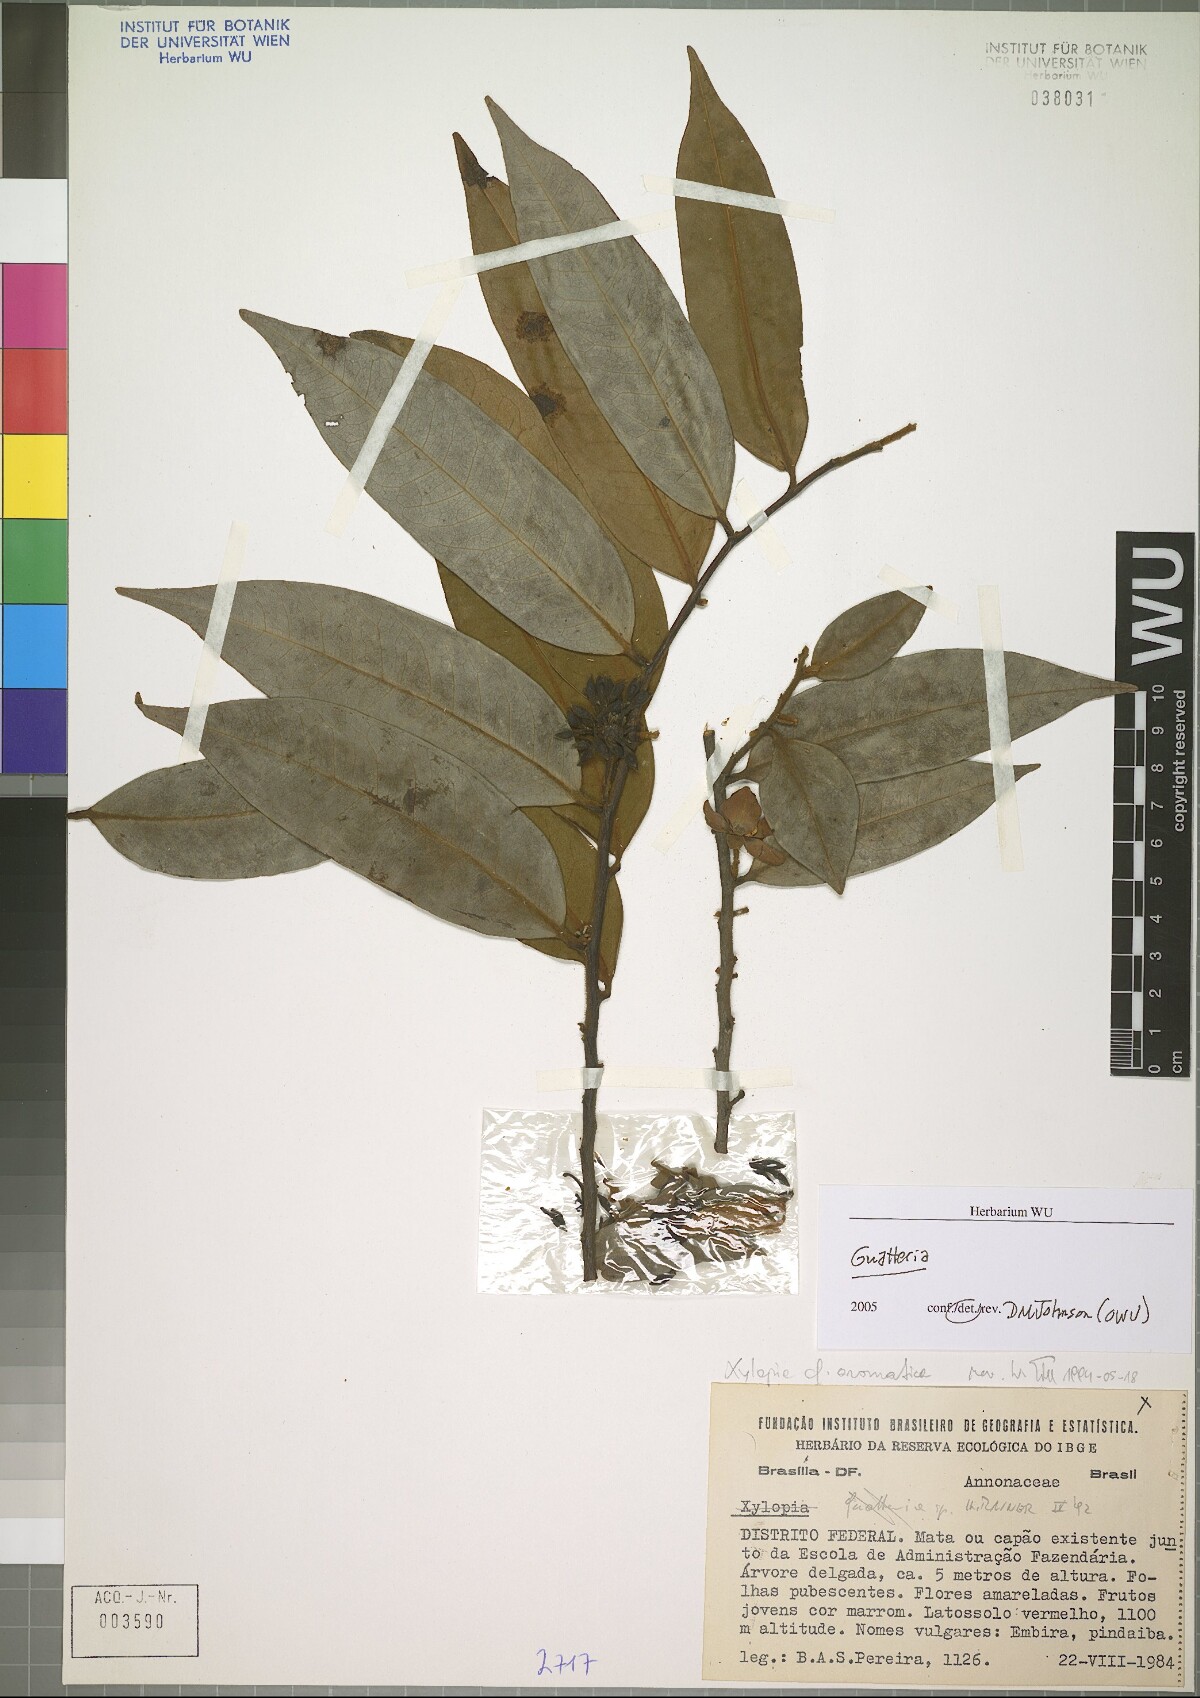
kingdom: Plantae
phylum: Tracheophyta
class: Magnoliopsida
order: Magnoliales
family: Annonaceae
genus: Guatteria
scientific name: Guatteria
